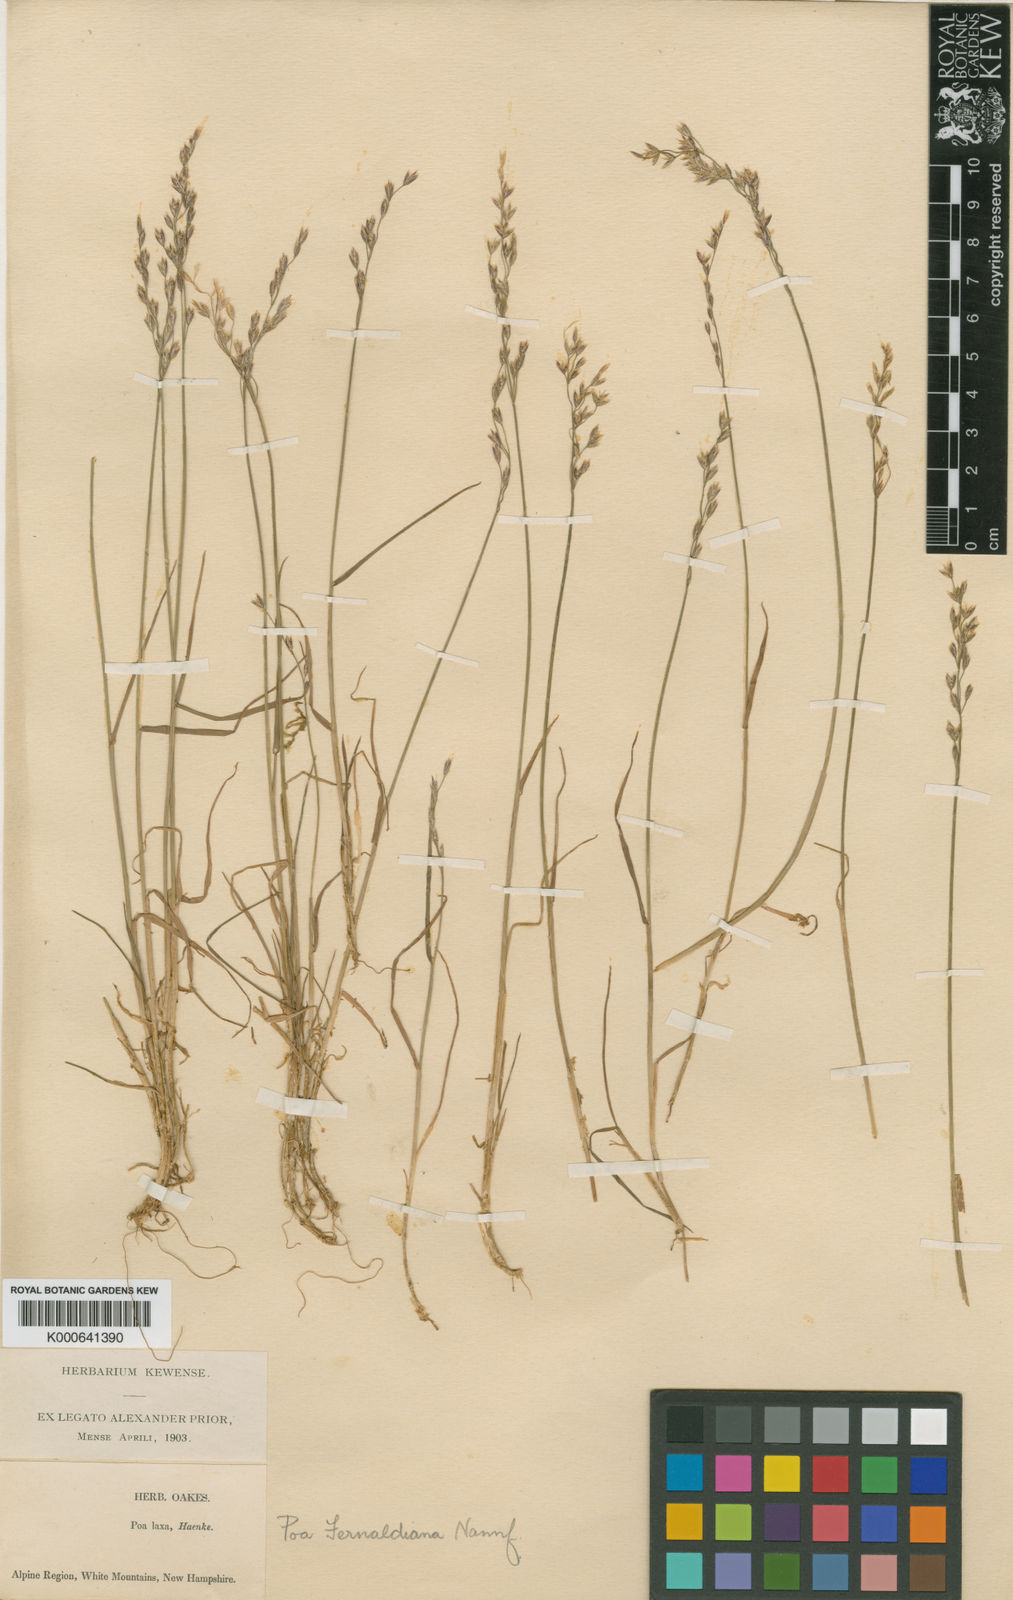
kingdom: Plantae
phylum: Tracheophyta
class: Liliopsida
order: Poales
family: Poaceae
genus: Poa
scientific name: Poa flexuosa
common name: Wavy meadow-grass
